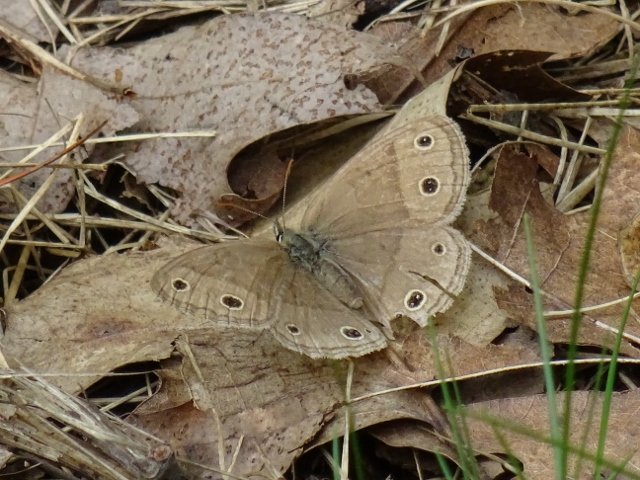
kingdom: Animalia
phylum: Arthropoda
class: Insecta
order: Lepidoptera
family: Nymphalidae
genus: Euptychia
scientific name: Euptychia cymela
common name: Little Wood Satyr
